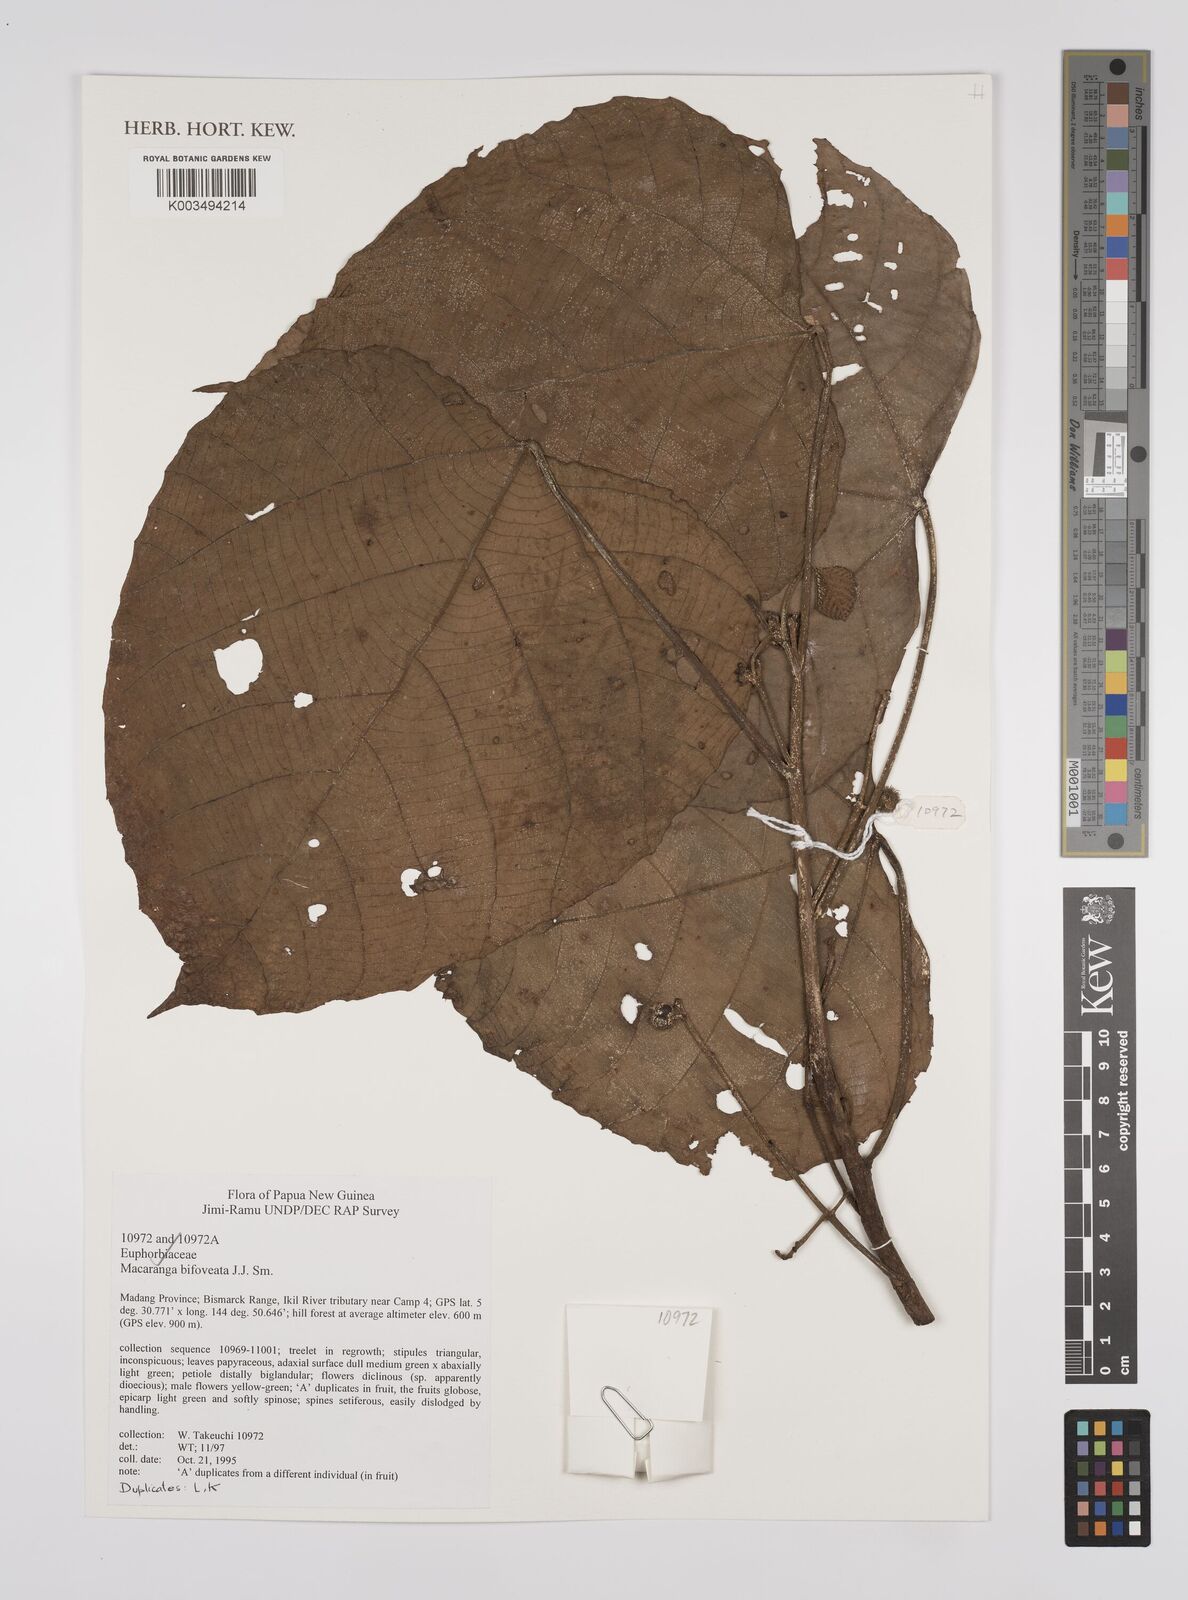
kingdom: Plantae
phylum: Tracheophyta
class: Magnoliopsida
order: Malpighiales
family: Euphorbiaceae
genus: Macaranga
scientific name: Macaranga bifoveata
